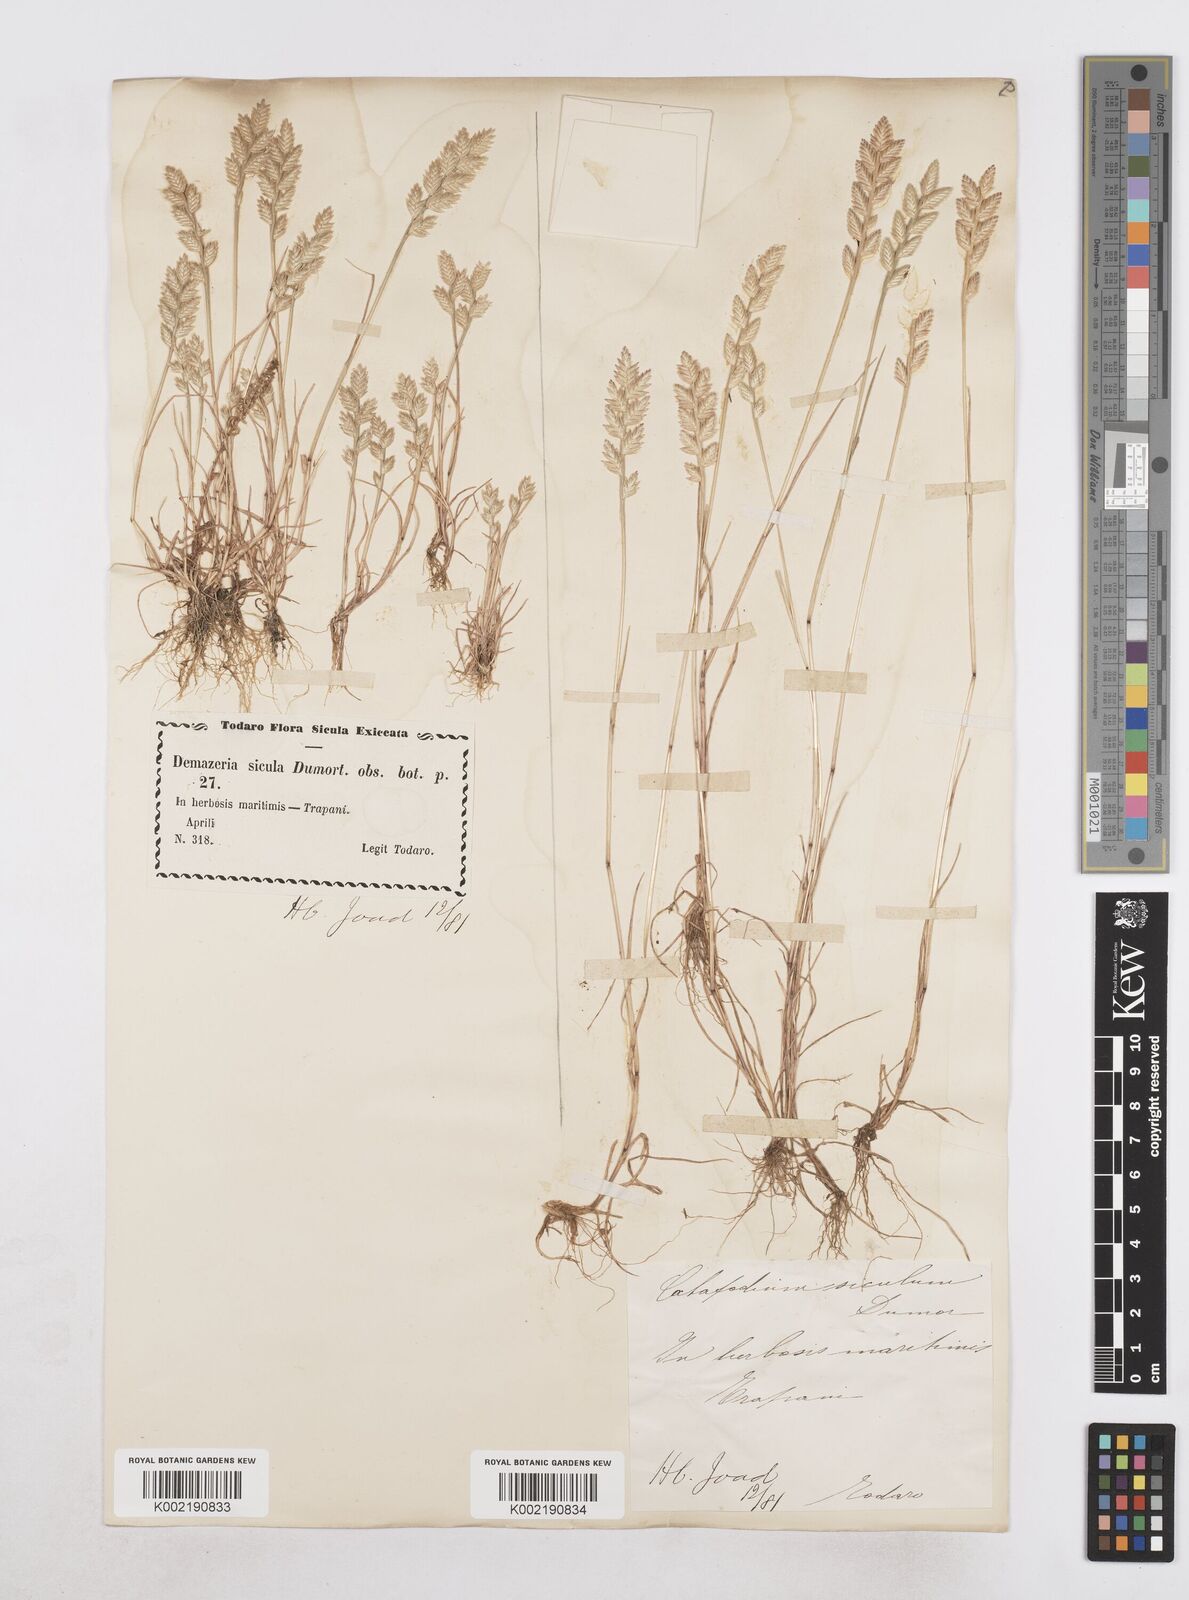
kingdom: Plantae
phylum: Tracheophyta
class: Liliopsida
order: Poales
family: Poaceae
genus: Desmazeria
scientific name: Desmazeria sicula
